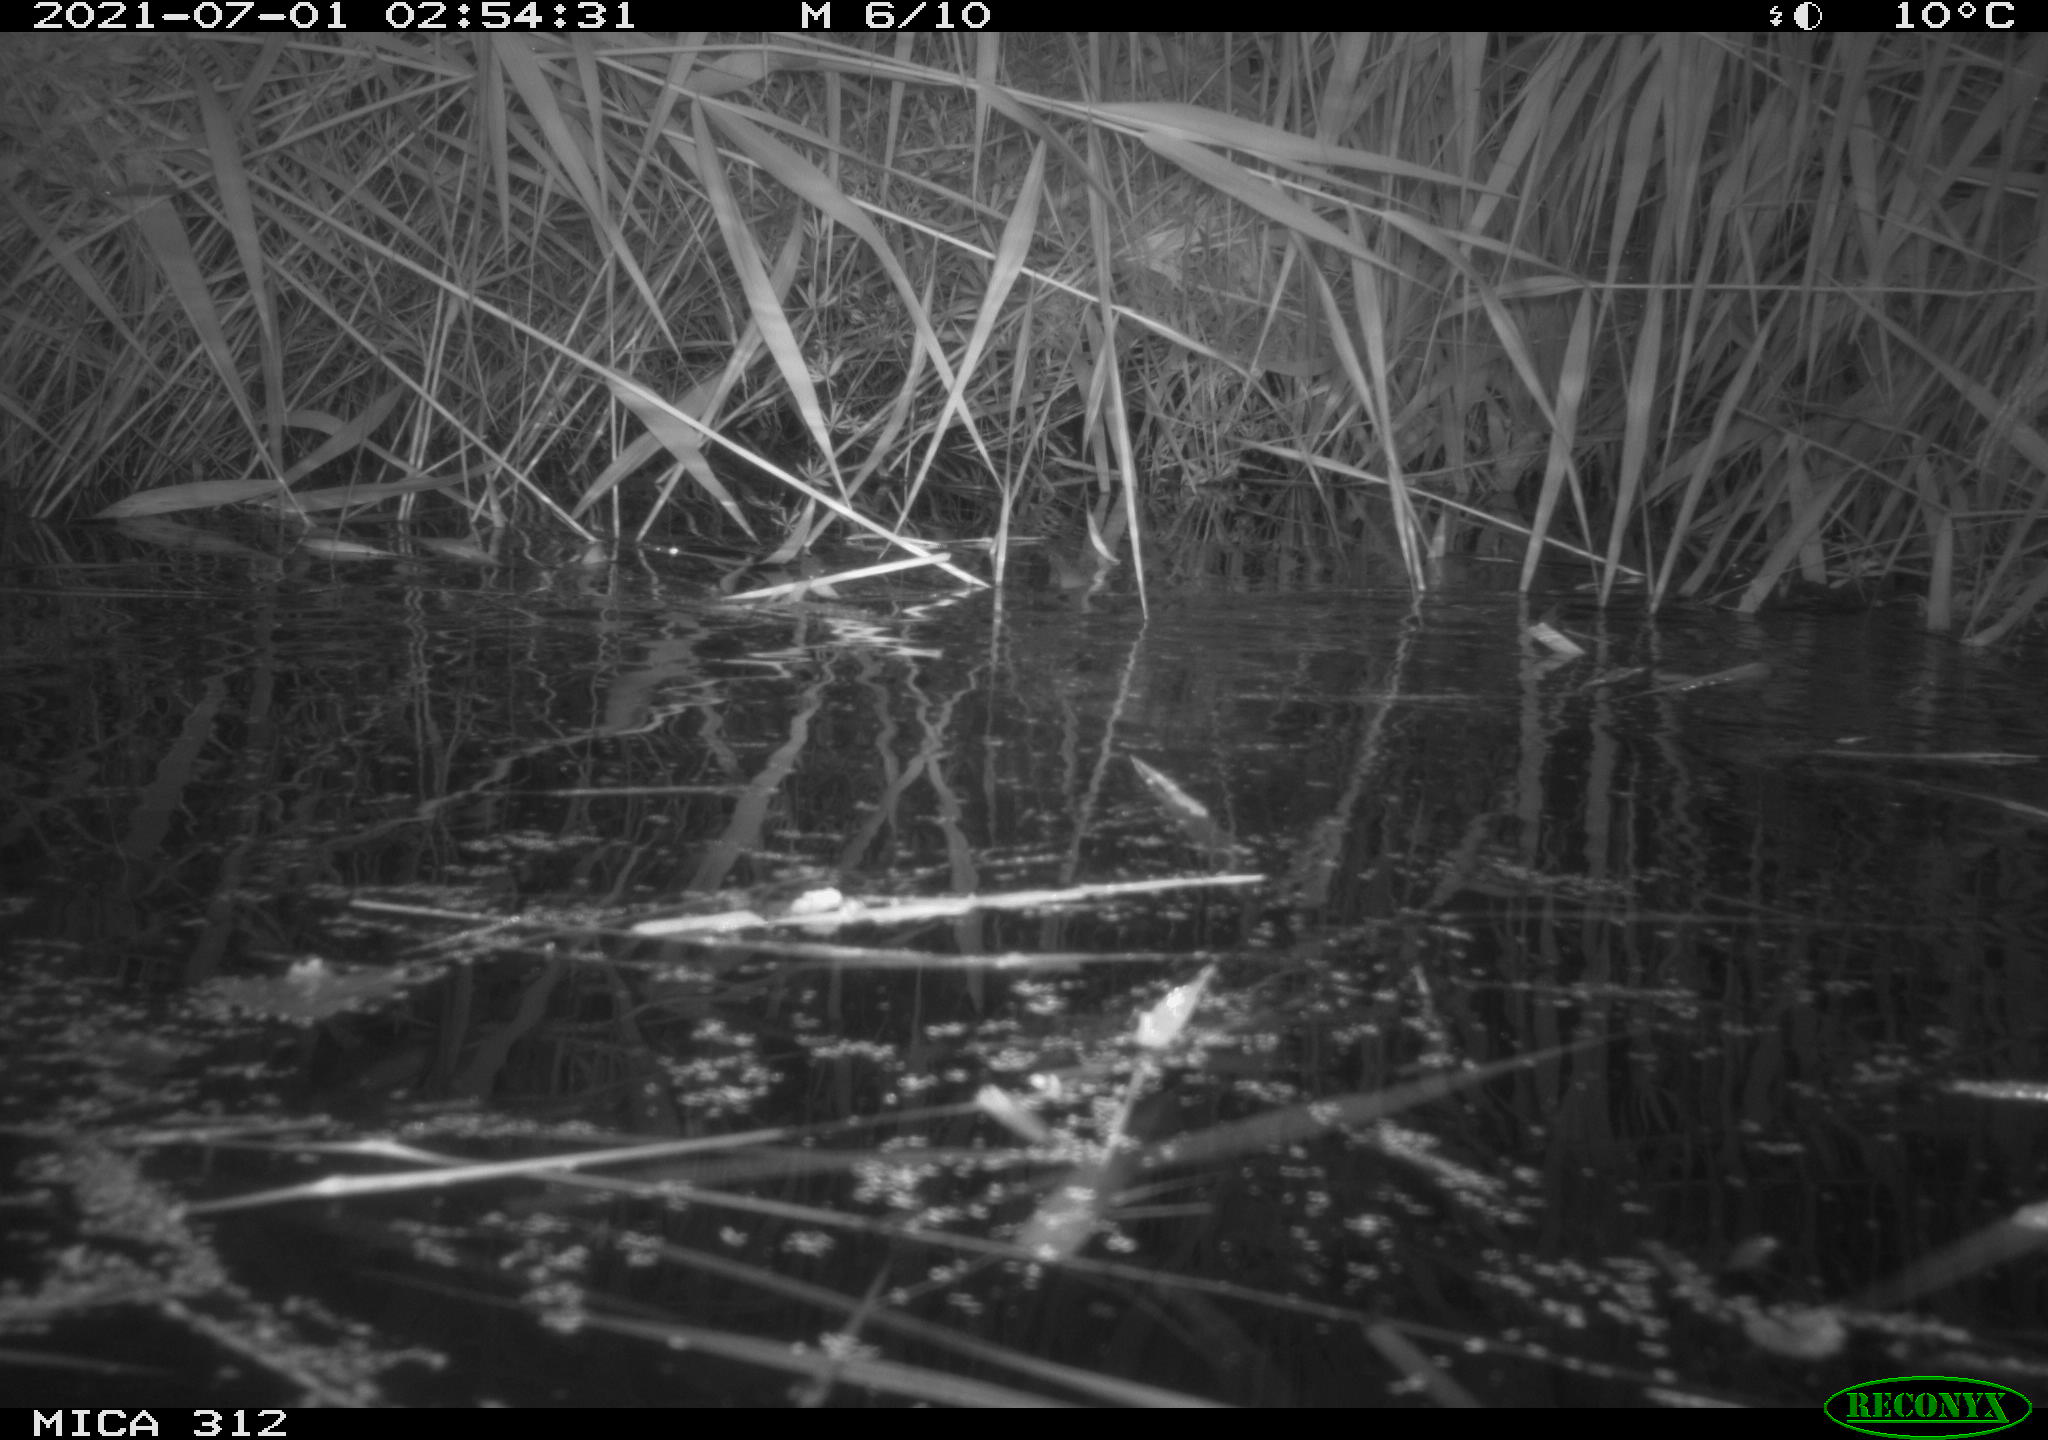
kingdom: Animalia
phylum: Chordata
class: Mammalia
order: Rodentia
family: Muridae
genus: Rattus
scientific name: Rattus norvegicus
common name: Brown rat
